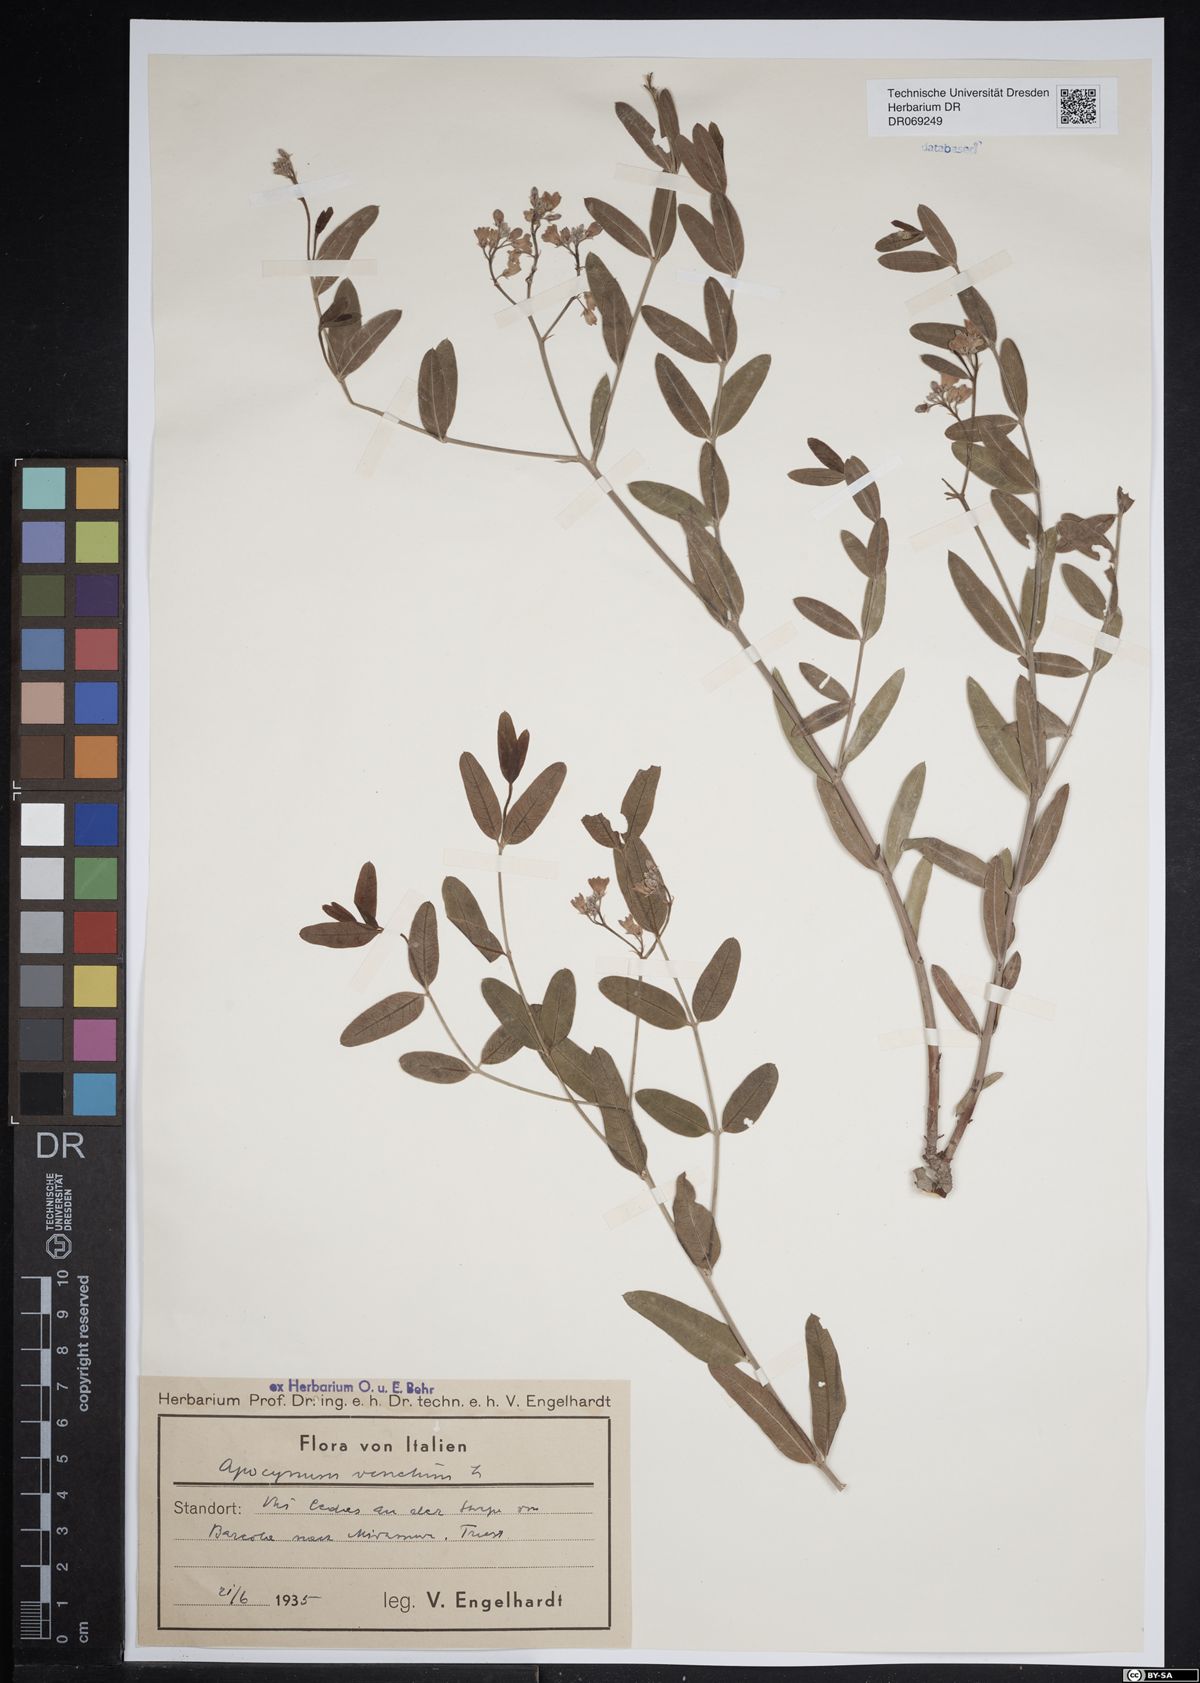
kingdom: Plantae
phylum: Tracheophyta
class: Magnoliopsida
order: Gentianales
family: Apocynaceae
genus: Poacynum
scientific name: Poacynum venetum
